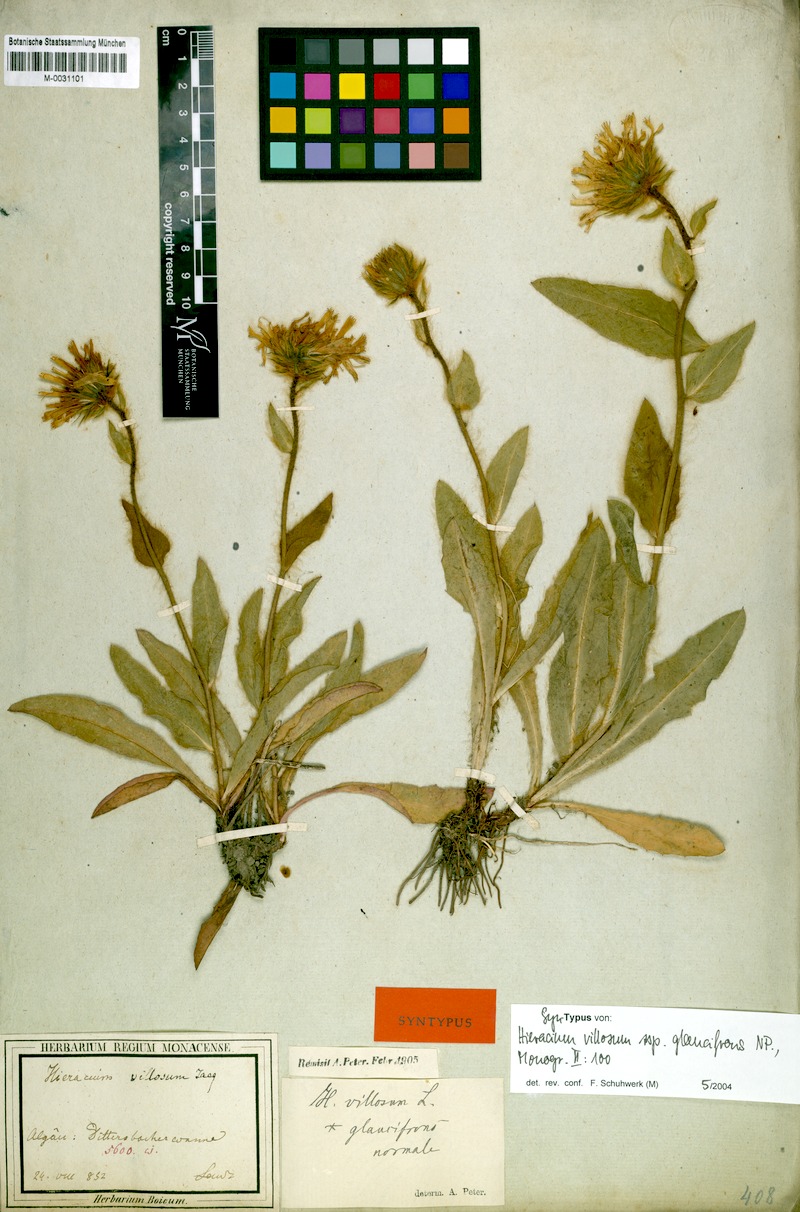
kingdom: Plantae
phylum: Tracheophyta
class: Magnoliopsida
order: Asterales
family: Asteraceae
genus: Hieracium
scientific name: Hieracium villosum
